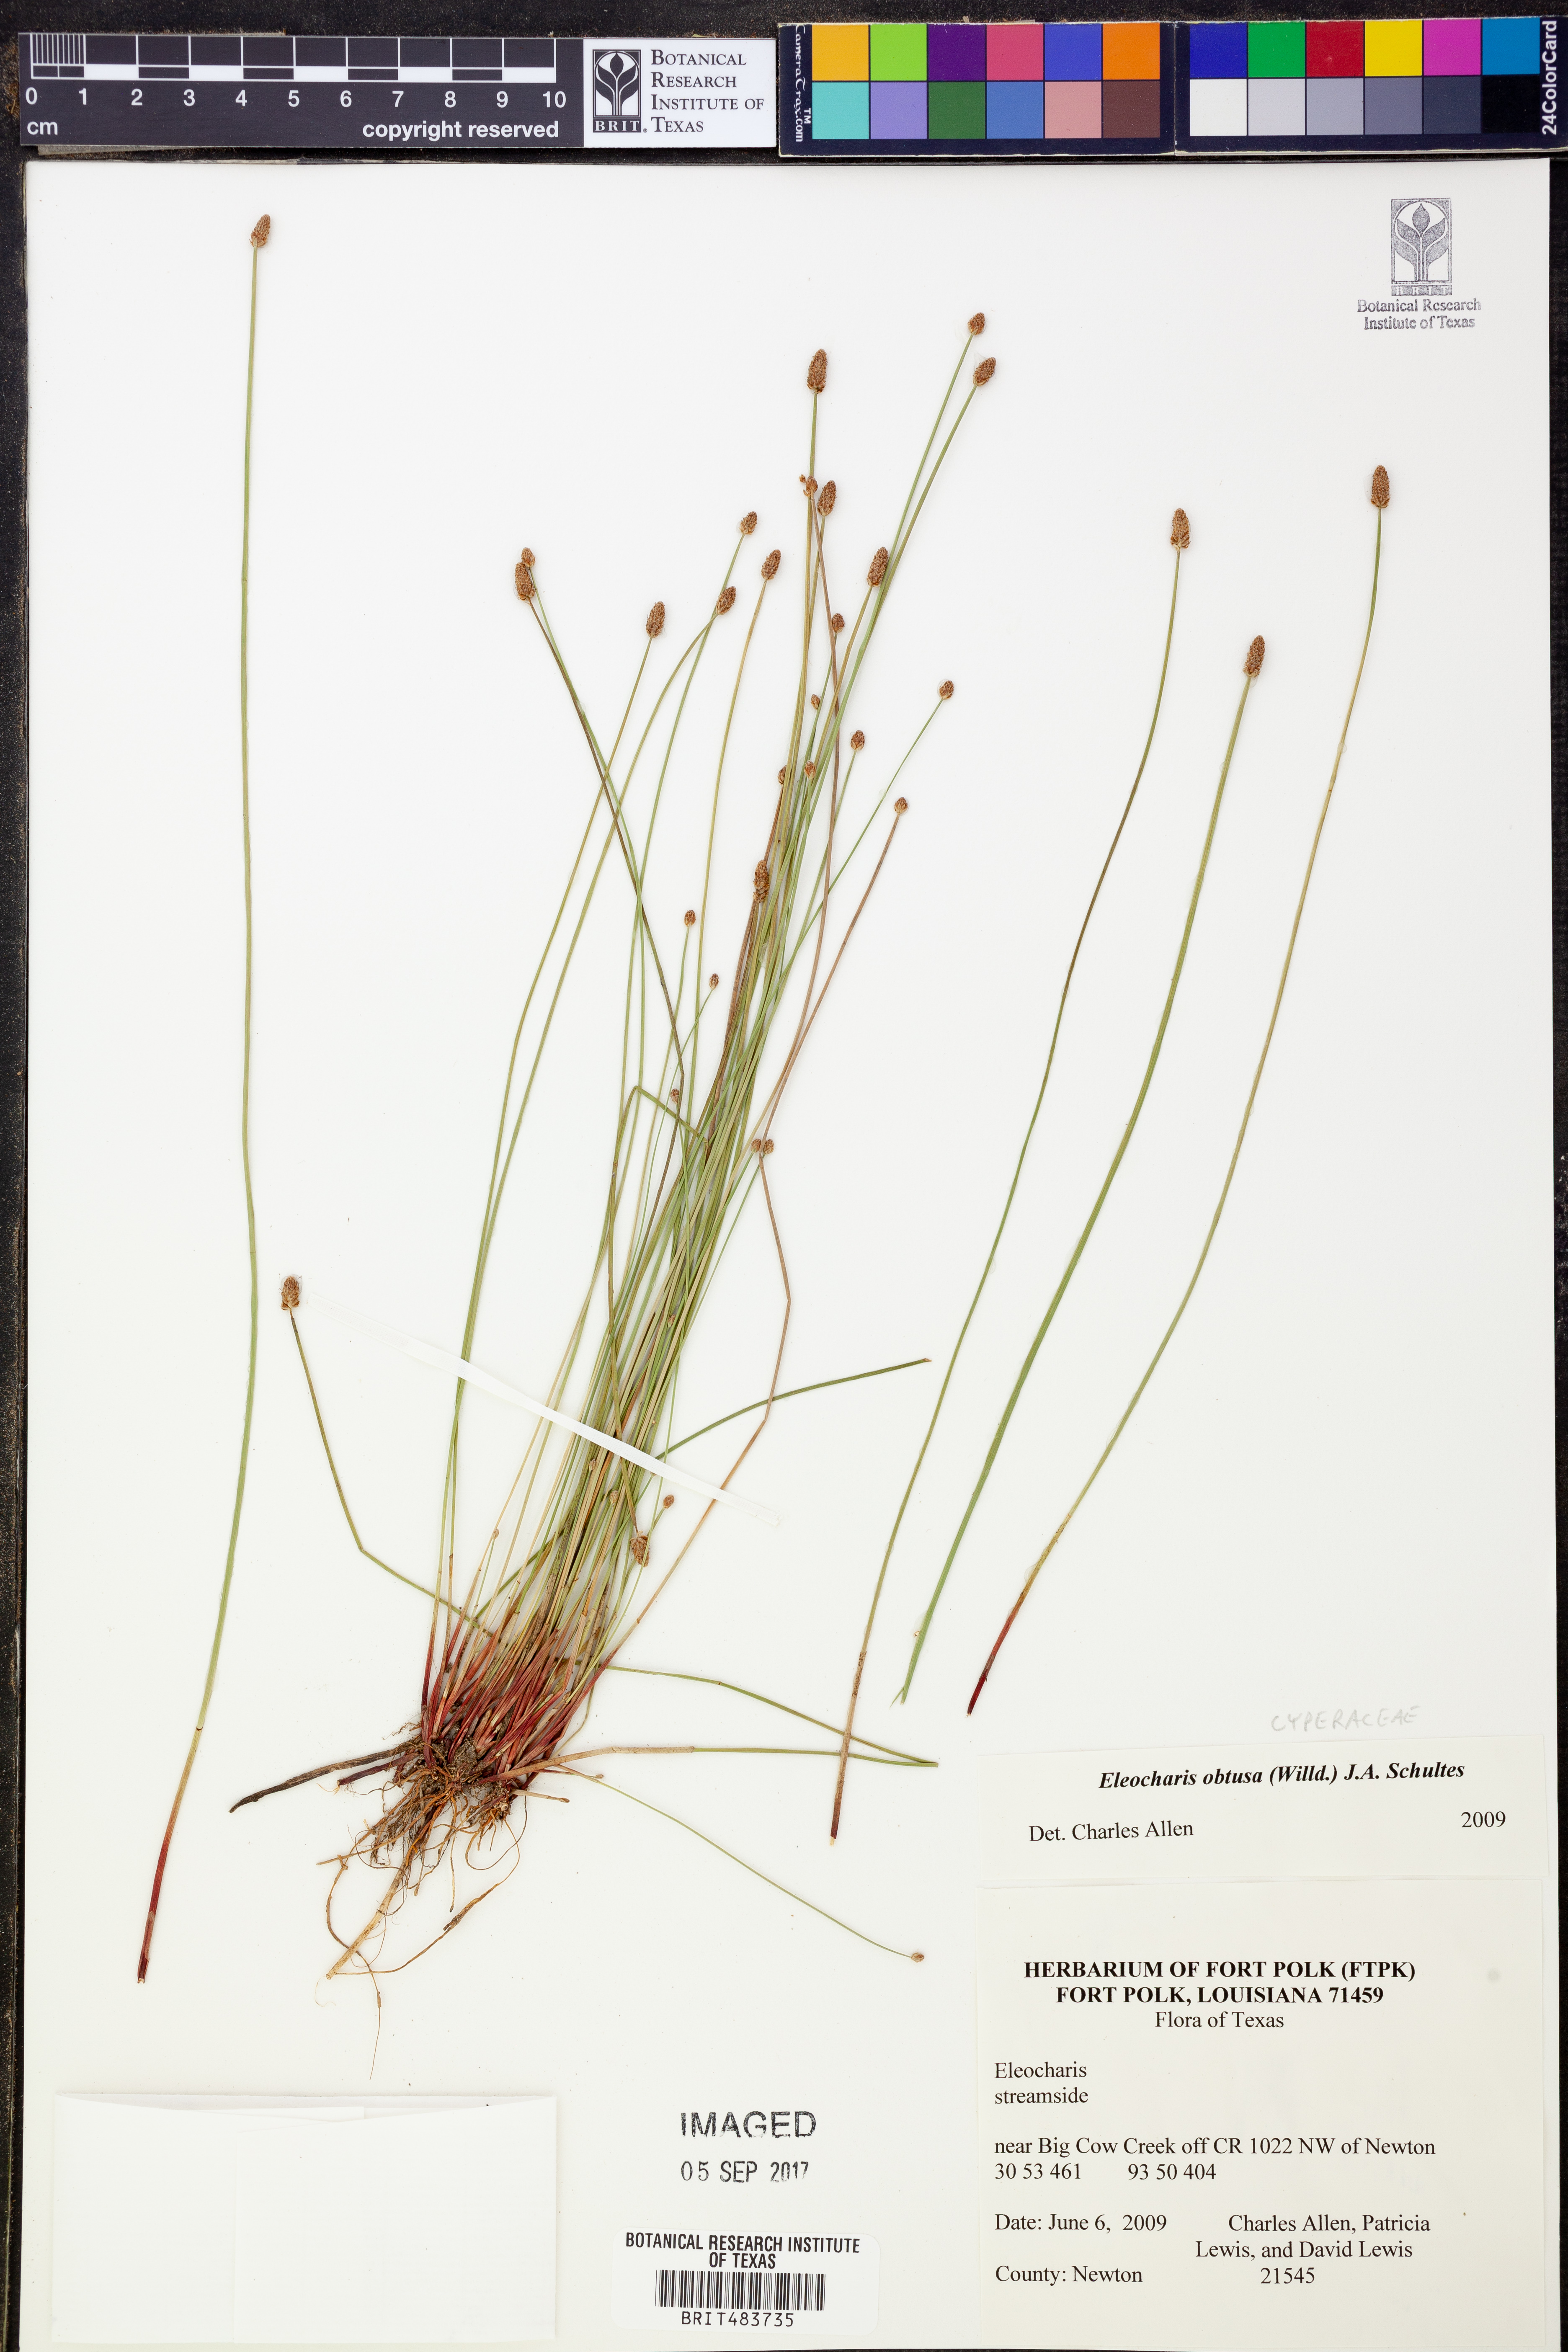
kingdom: Plantae
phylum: Tracheophyta
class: Liliopsida
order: Poales
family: Cyperaceae
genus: Eleocharis
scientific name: Eleocharis obtusa
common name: Blunt spikerush
